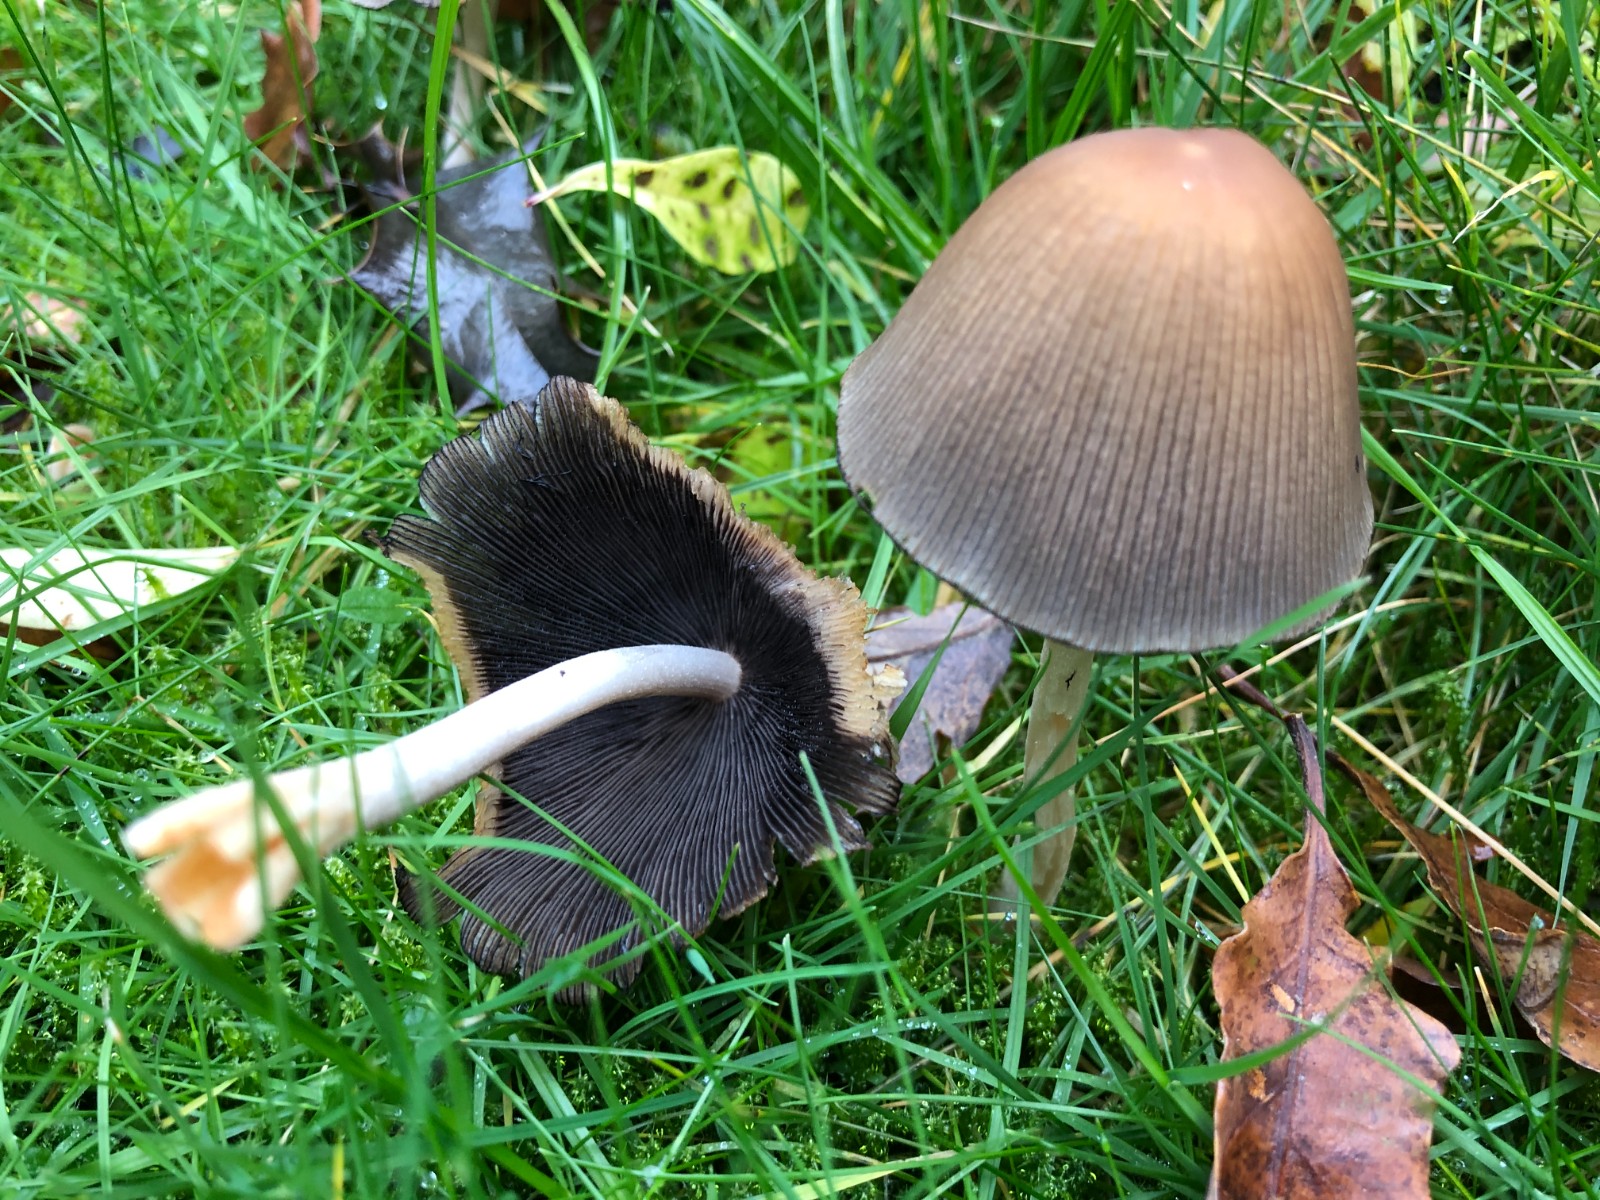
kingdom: Fungi
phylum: Basidiomycota
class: Agaricomycetes
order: Agaricales
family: Psathyrellaceae
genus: Coprinellus
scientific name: Coprinellus micaceus
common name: glimmer-blækhat
